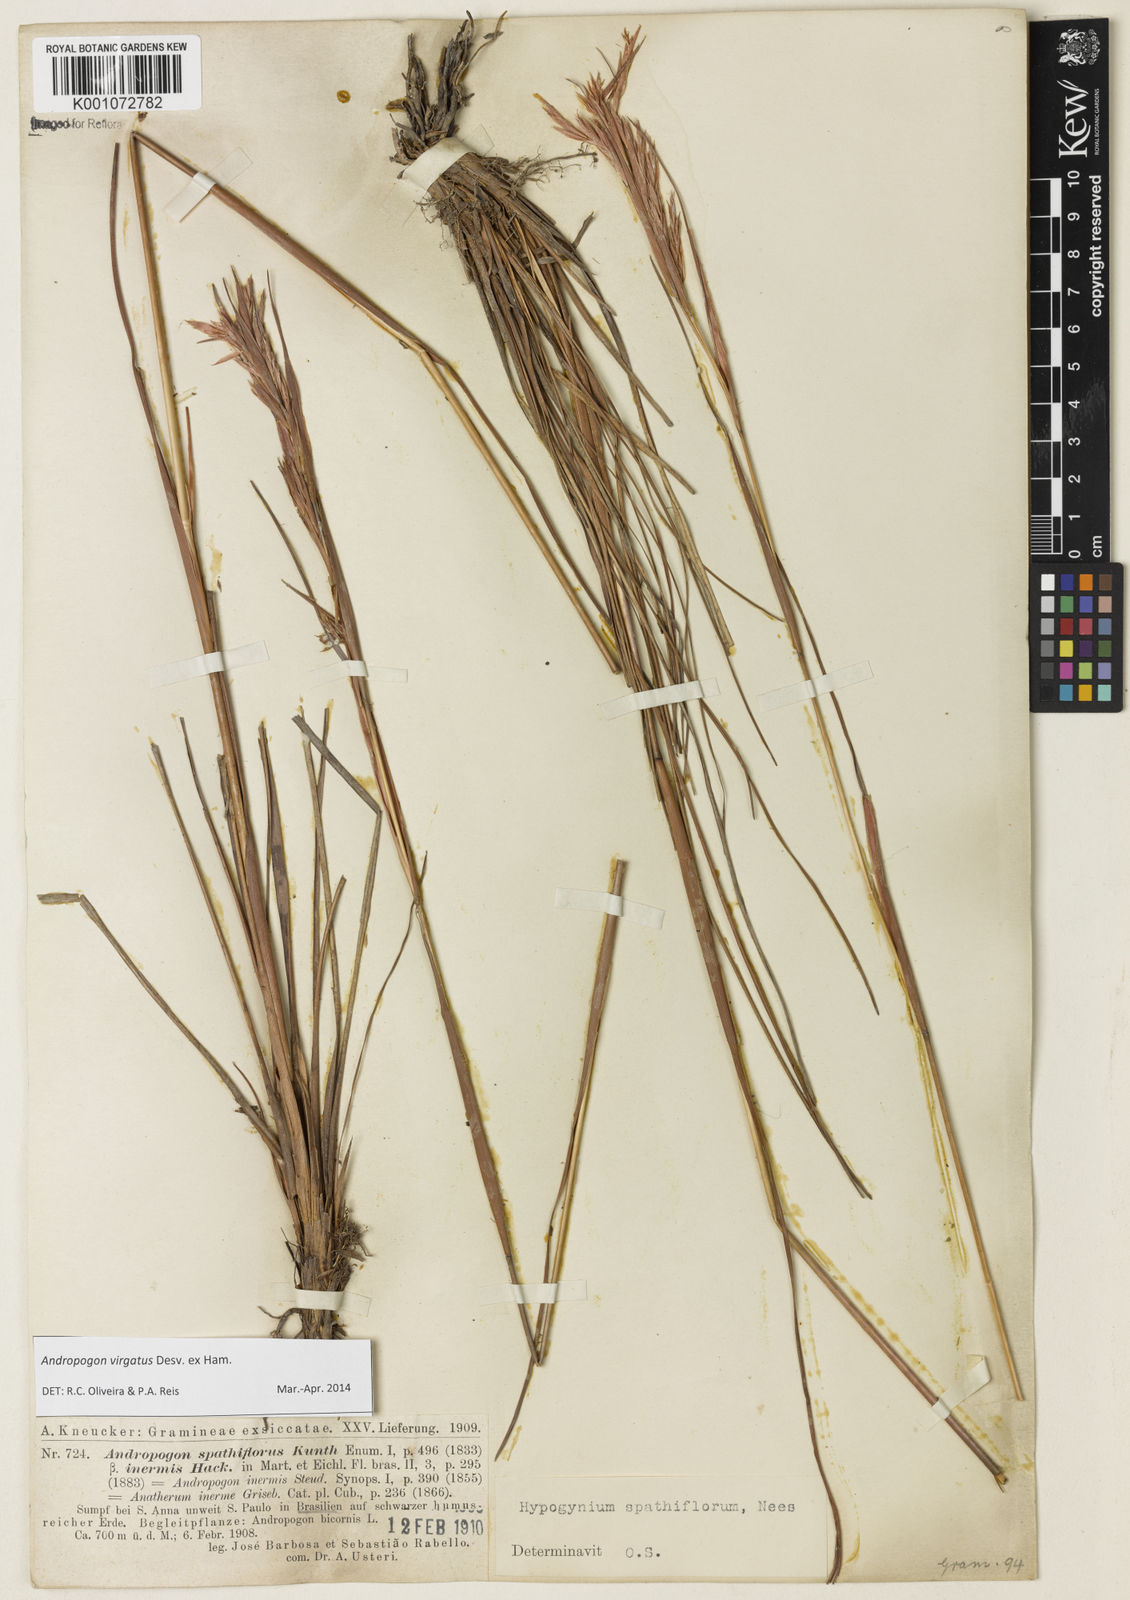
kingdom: Plantae
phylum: Tracheophyta
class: Liliopsida
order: Poales
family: Poaceae
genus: Andropogon
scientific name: Andropogon virgatus
